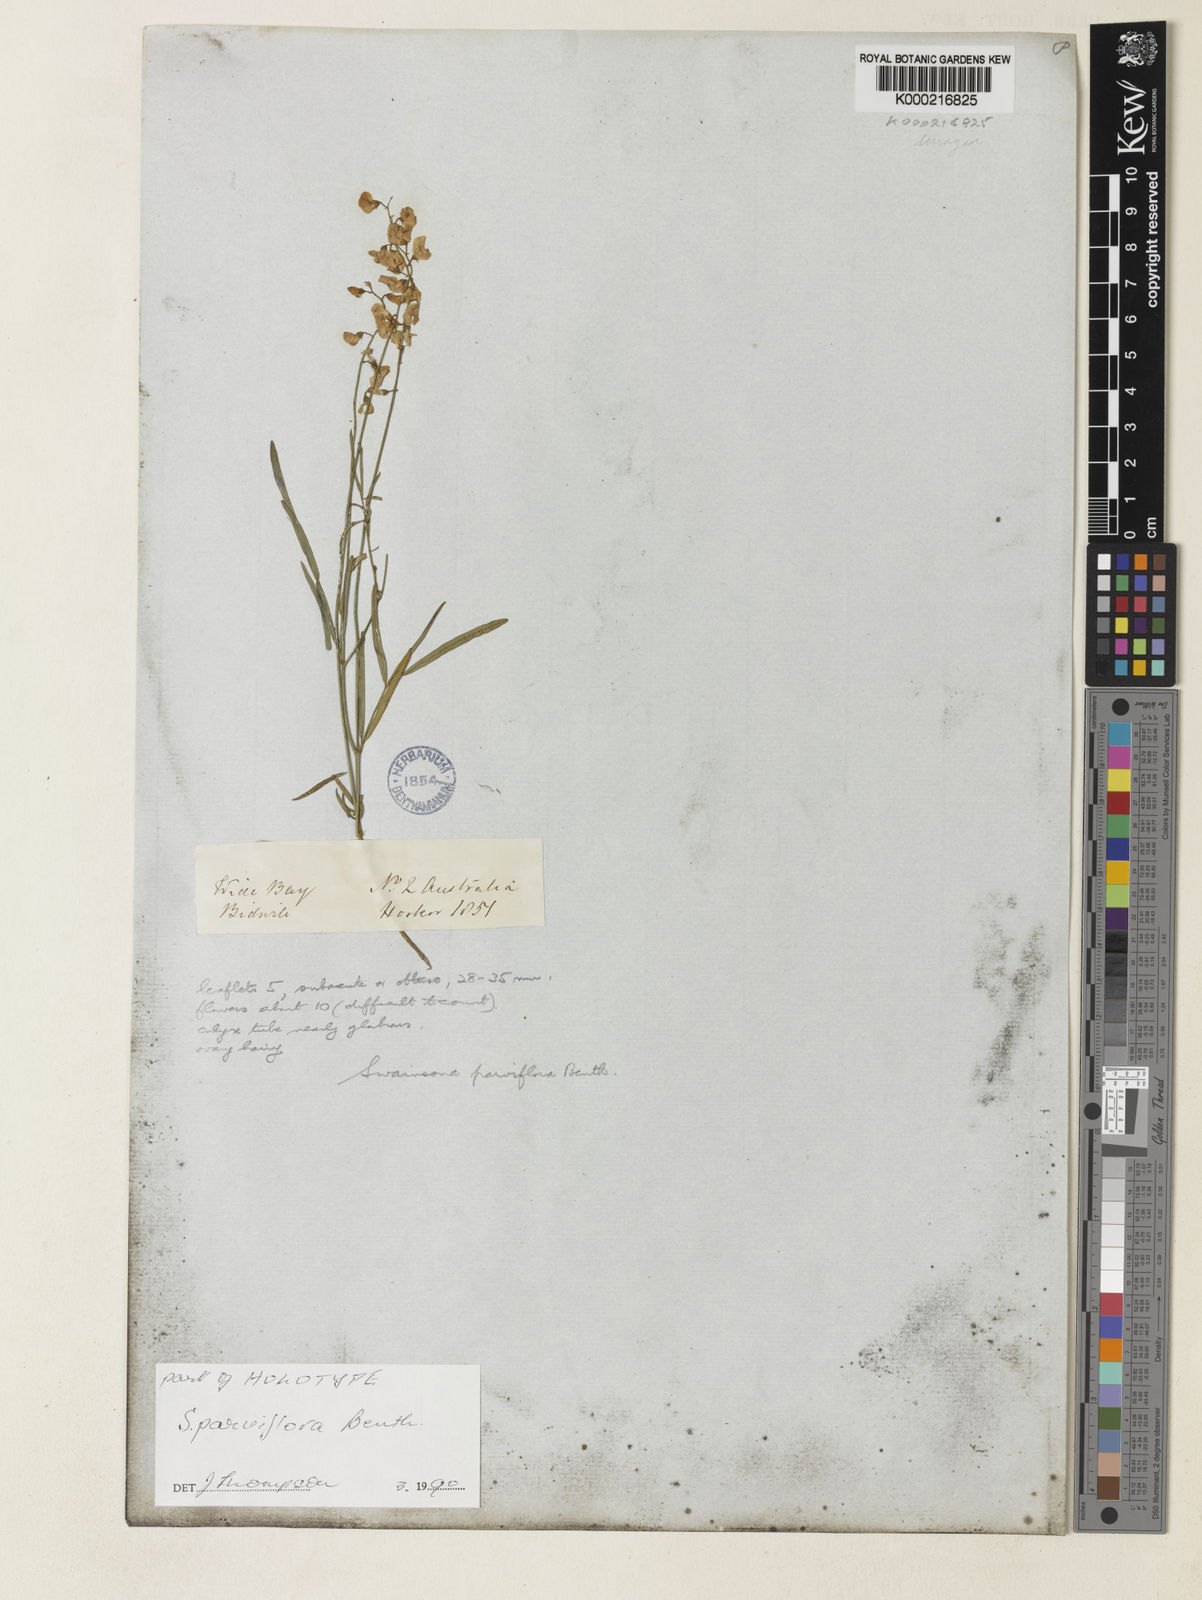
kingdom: Plantae
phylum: Tracheophyta
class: Magnoliopsida
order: Fabales
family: Fabaceae
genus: Swainsona
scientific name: Swainsona parviflora
